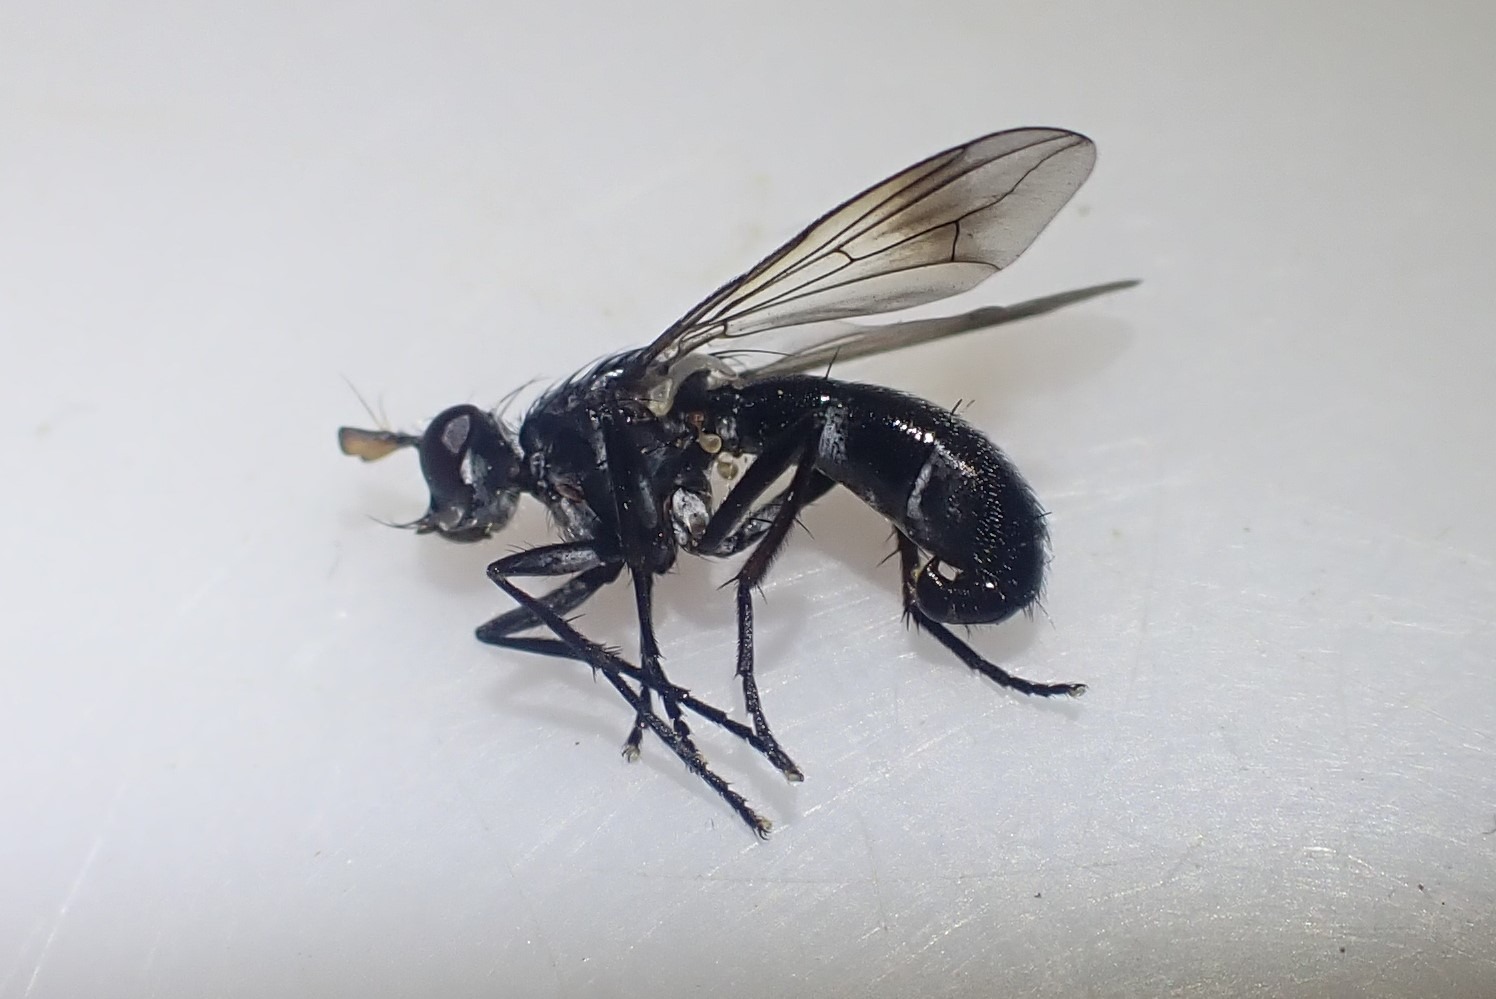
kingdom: Animalia
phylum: Arthropoda
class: Insecta
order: Diptera
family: Tachinidae
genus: Lophosia
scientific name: Lophosia fasciata
